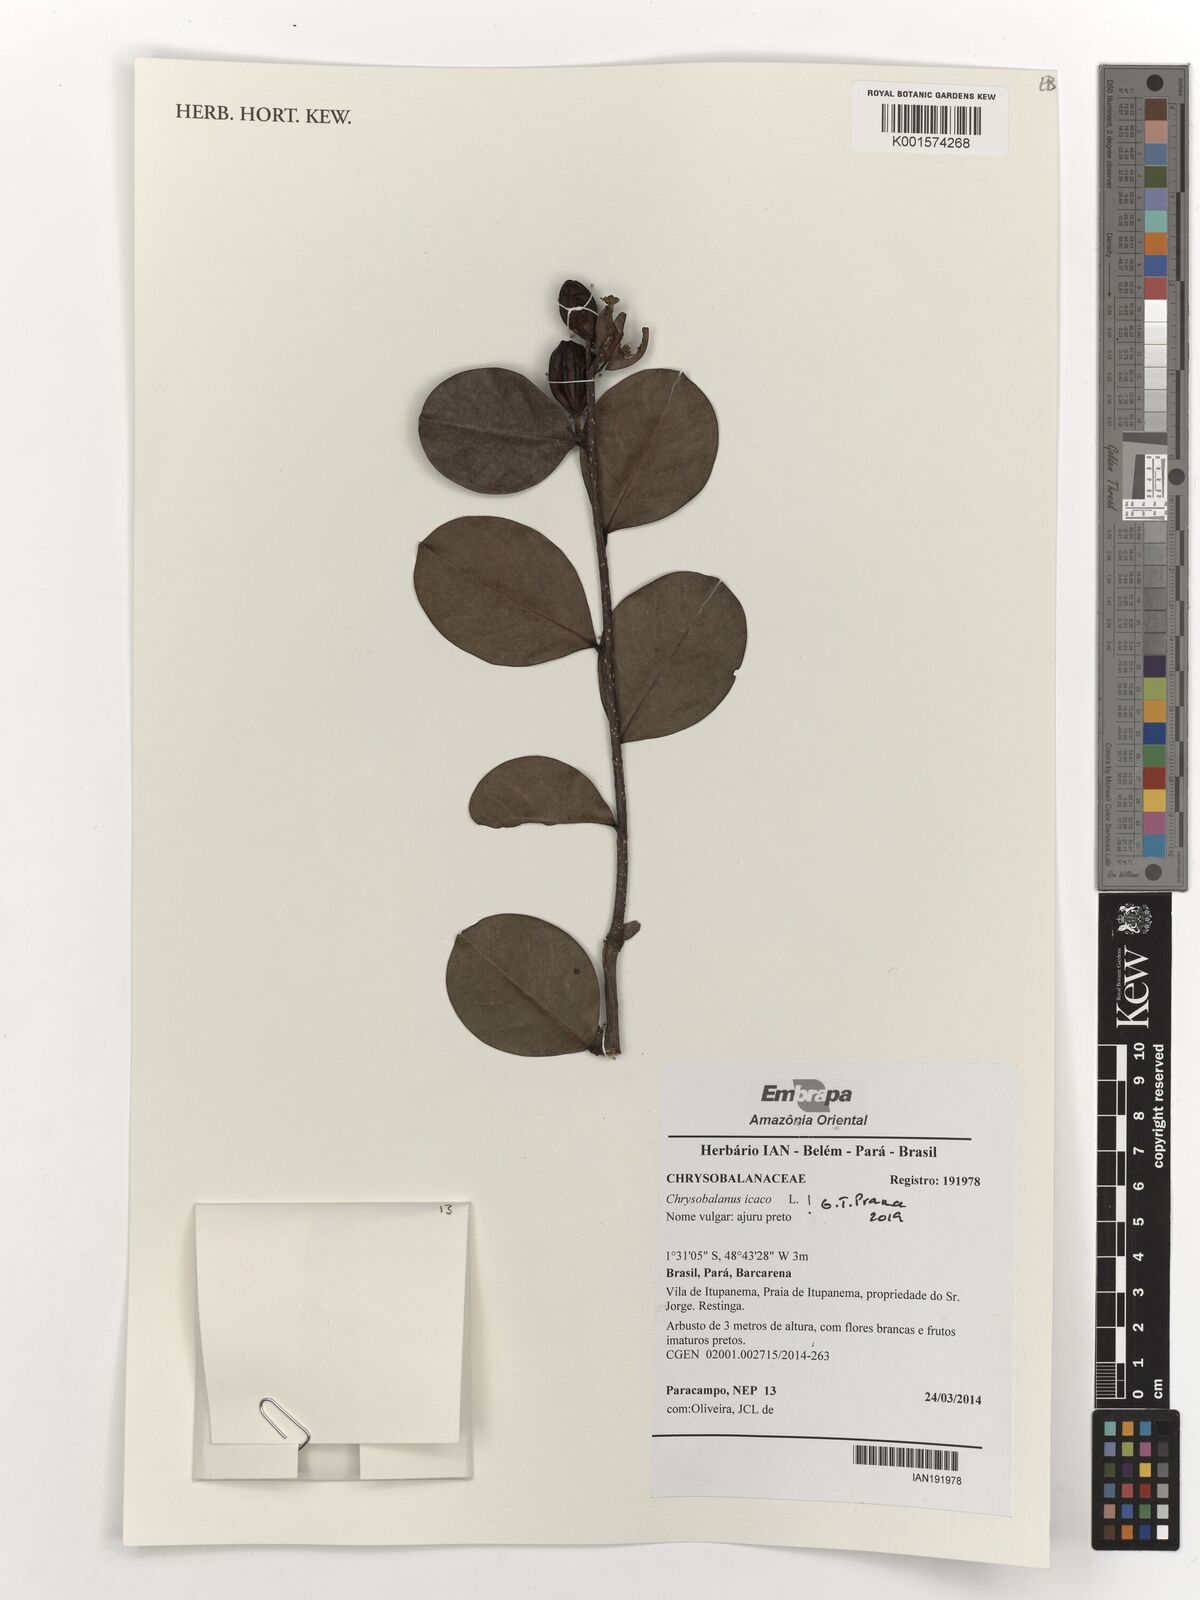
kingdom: Plantae
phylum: Tracheophyta
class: Magnoliopsida
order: Malpighiales
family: Chrysobalanaceae
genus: Chrysobalanus
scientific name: Chrysobalanus icaco
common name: Coco plum
